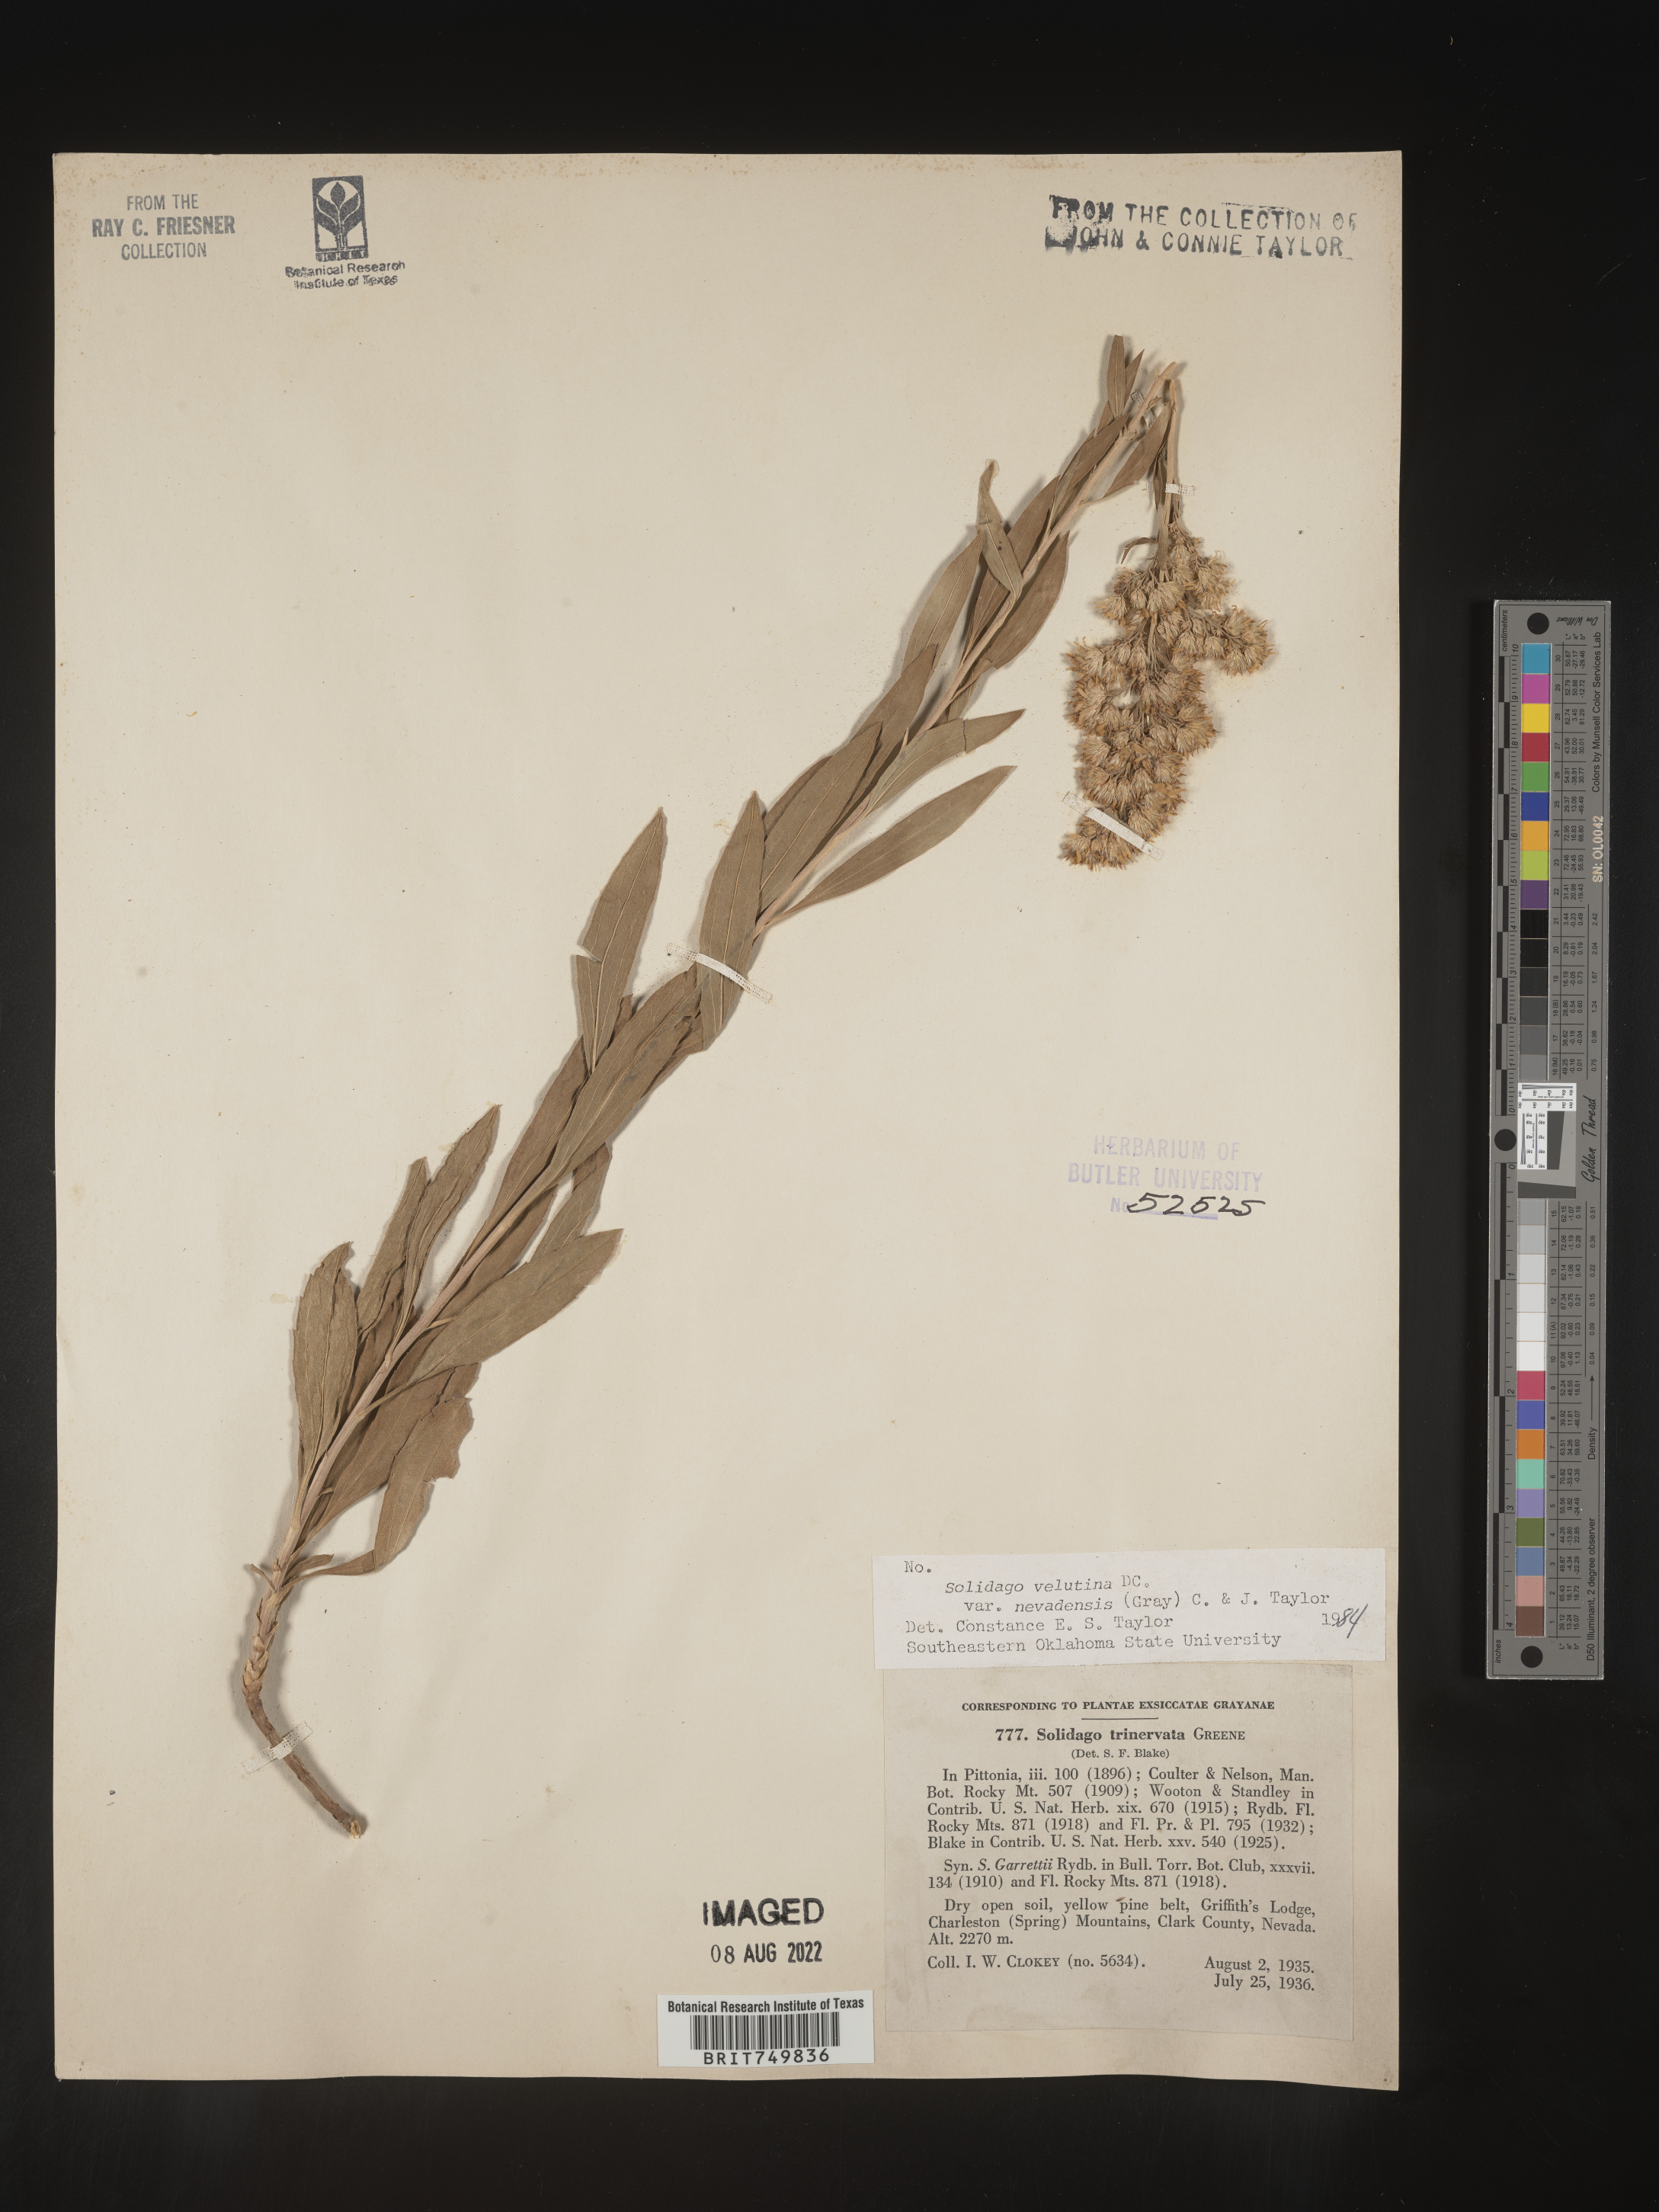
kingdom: Plantae
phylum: Tracheophyta
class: Magnoliopsida
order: Asterales
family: Asteraceae
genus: Solidago
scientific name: Solidago velutina
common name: Three-nerve goldenrod
